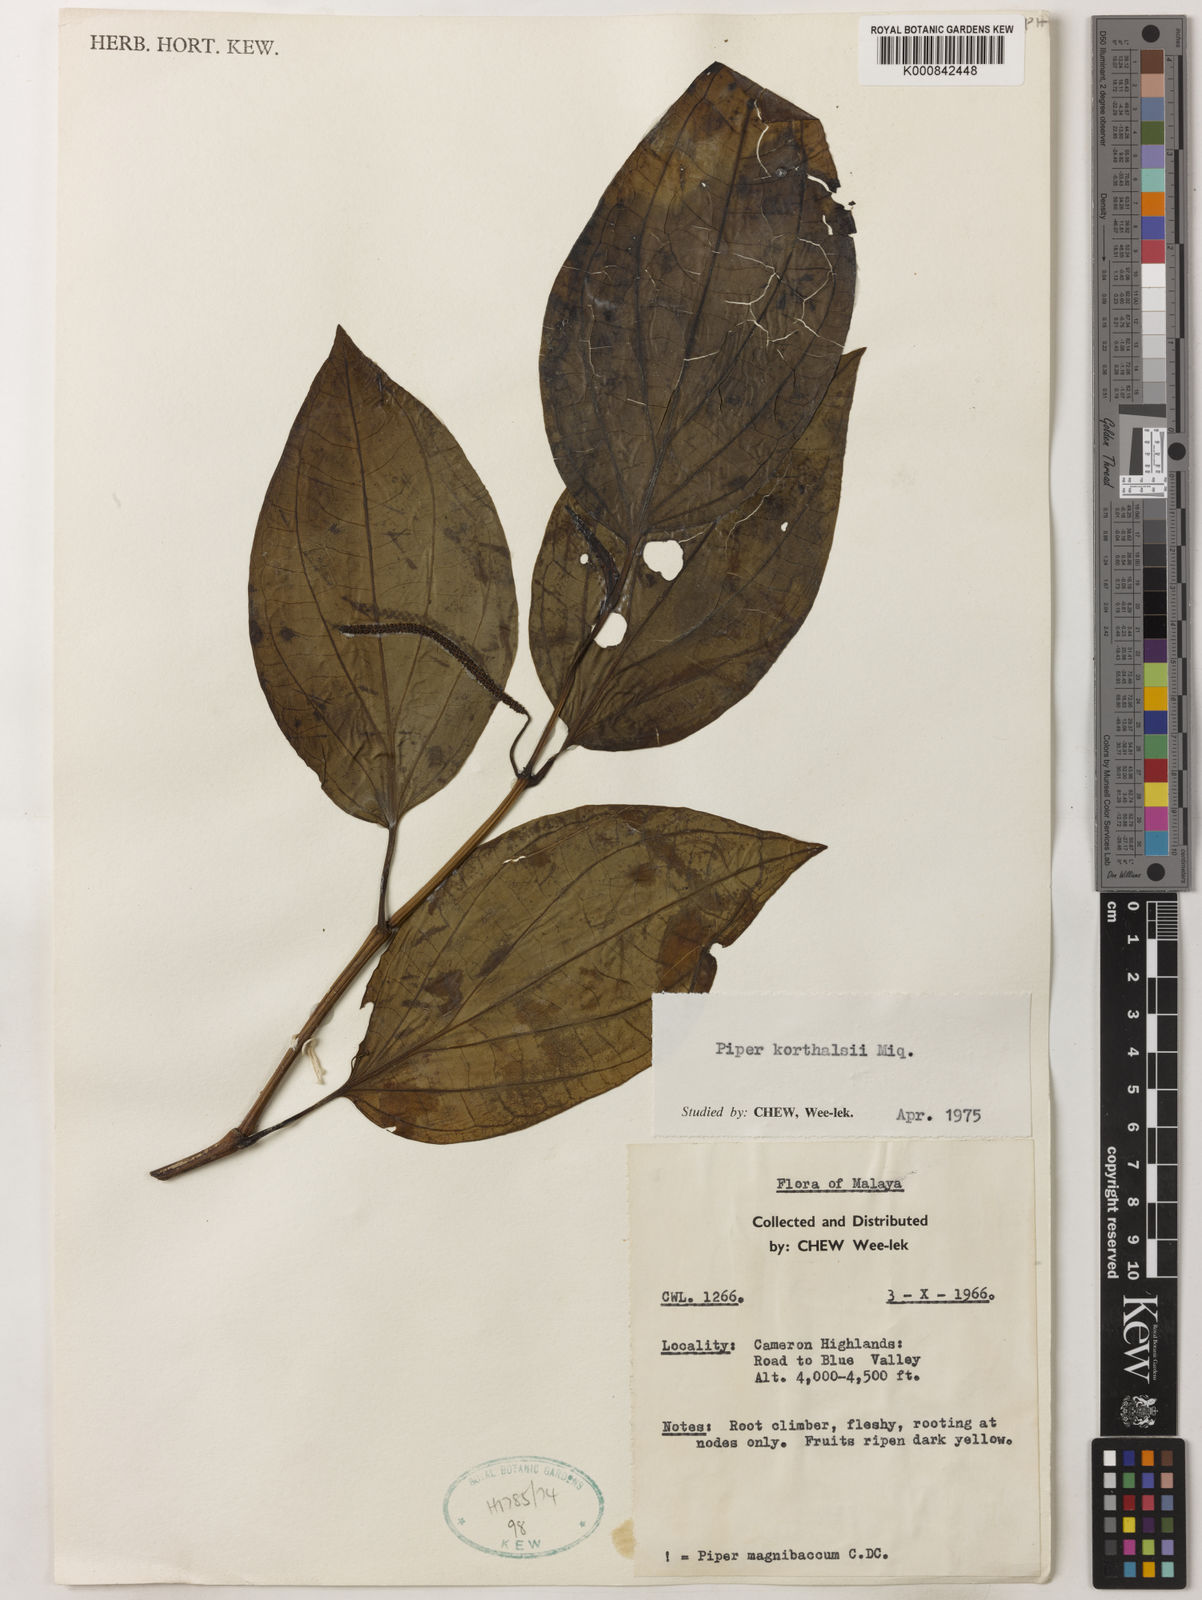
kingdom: Plantae
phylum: Tracheophyta
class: Magnoliopsida
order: Piperales
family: Piperaceae
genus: Piper
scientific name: Piper quinqueangulatum
